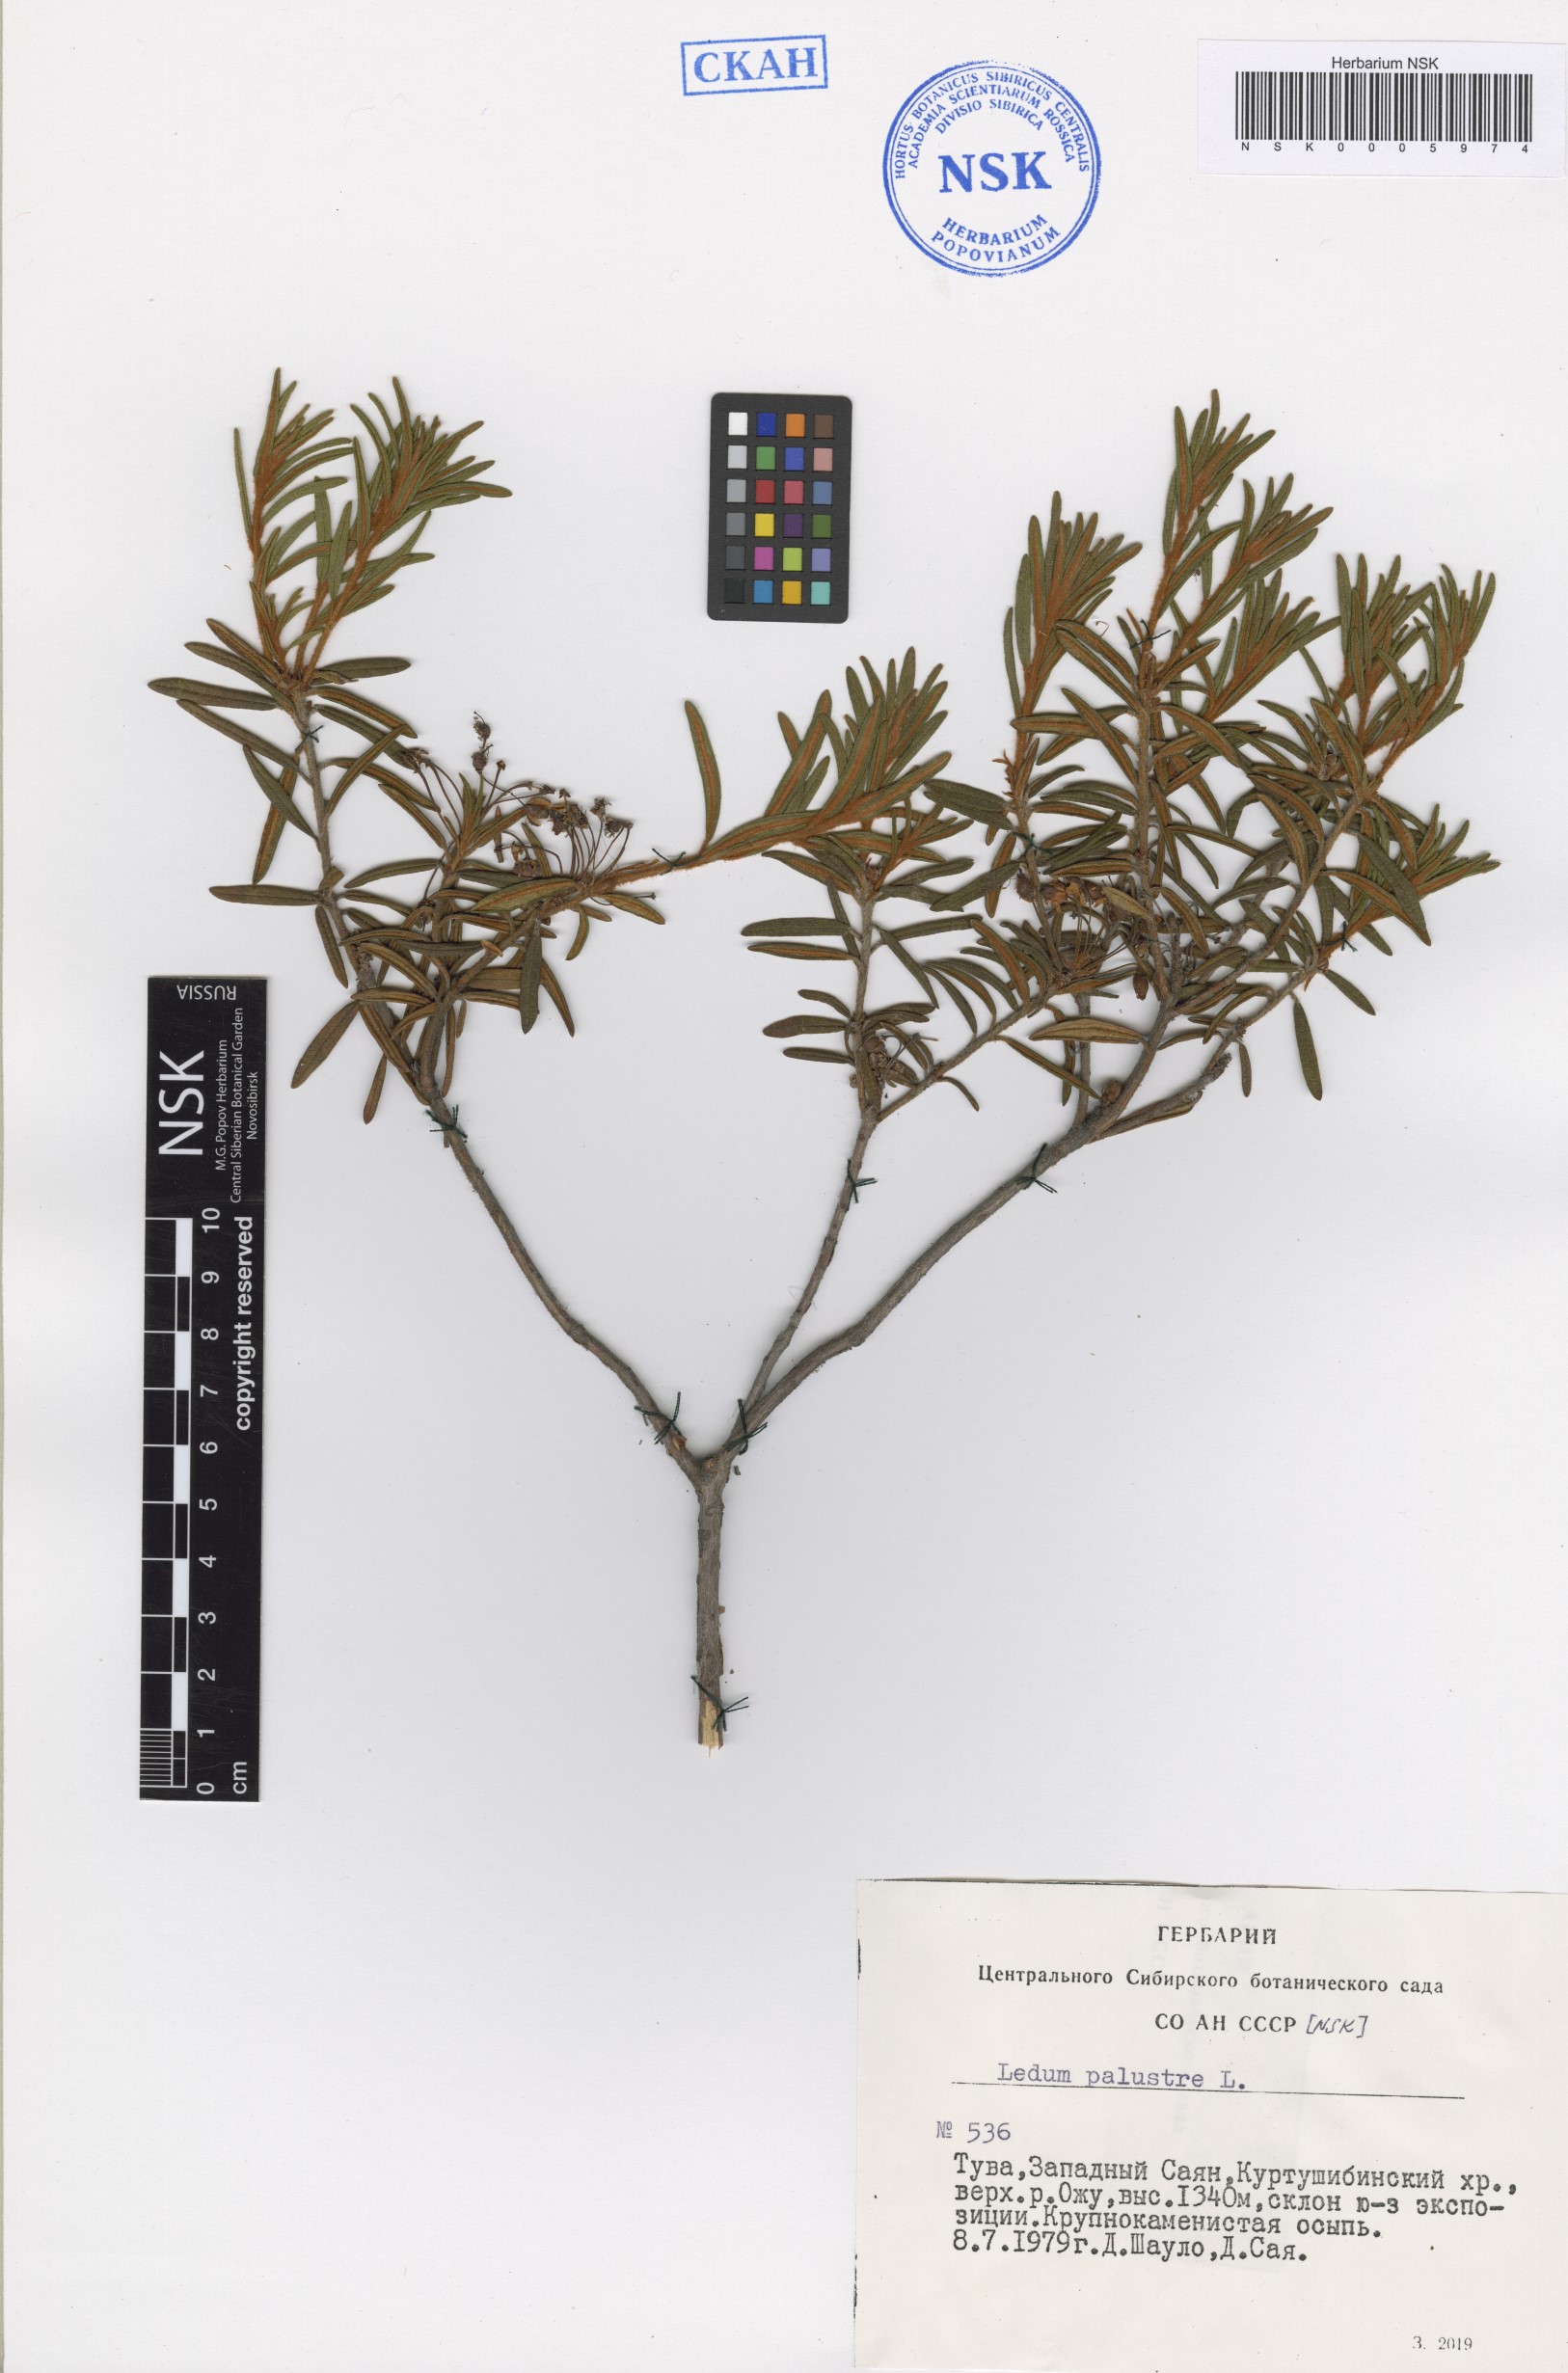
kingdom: Plantae
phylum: Tracheophyta
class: Magnoliopsida
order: Ericales
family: Ericaceae
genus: Rhododendron
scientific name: Rhododendron tomentosum
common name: Marsh labrador tea
